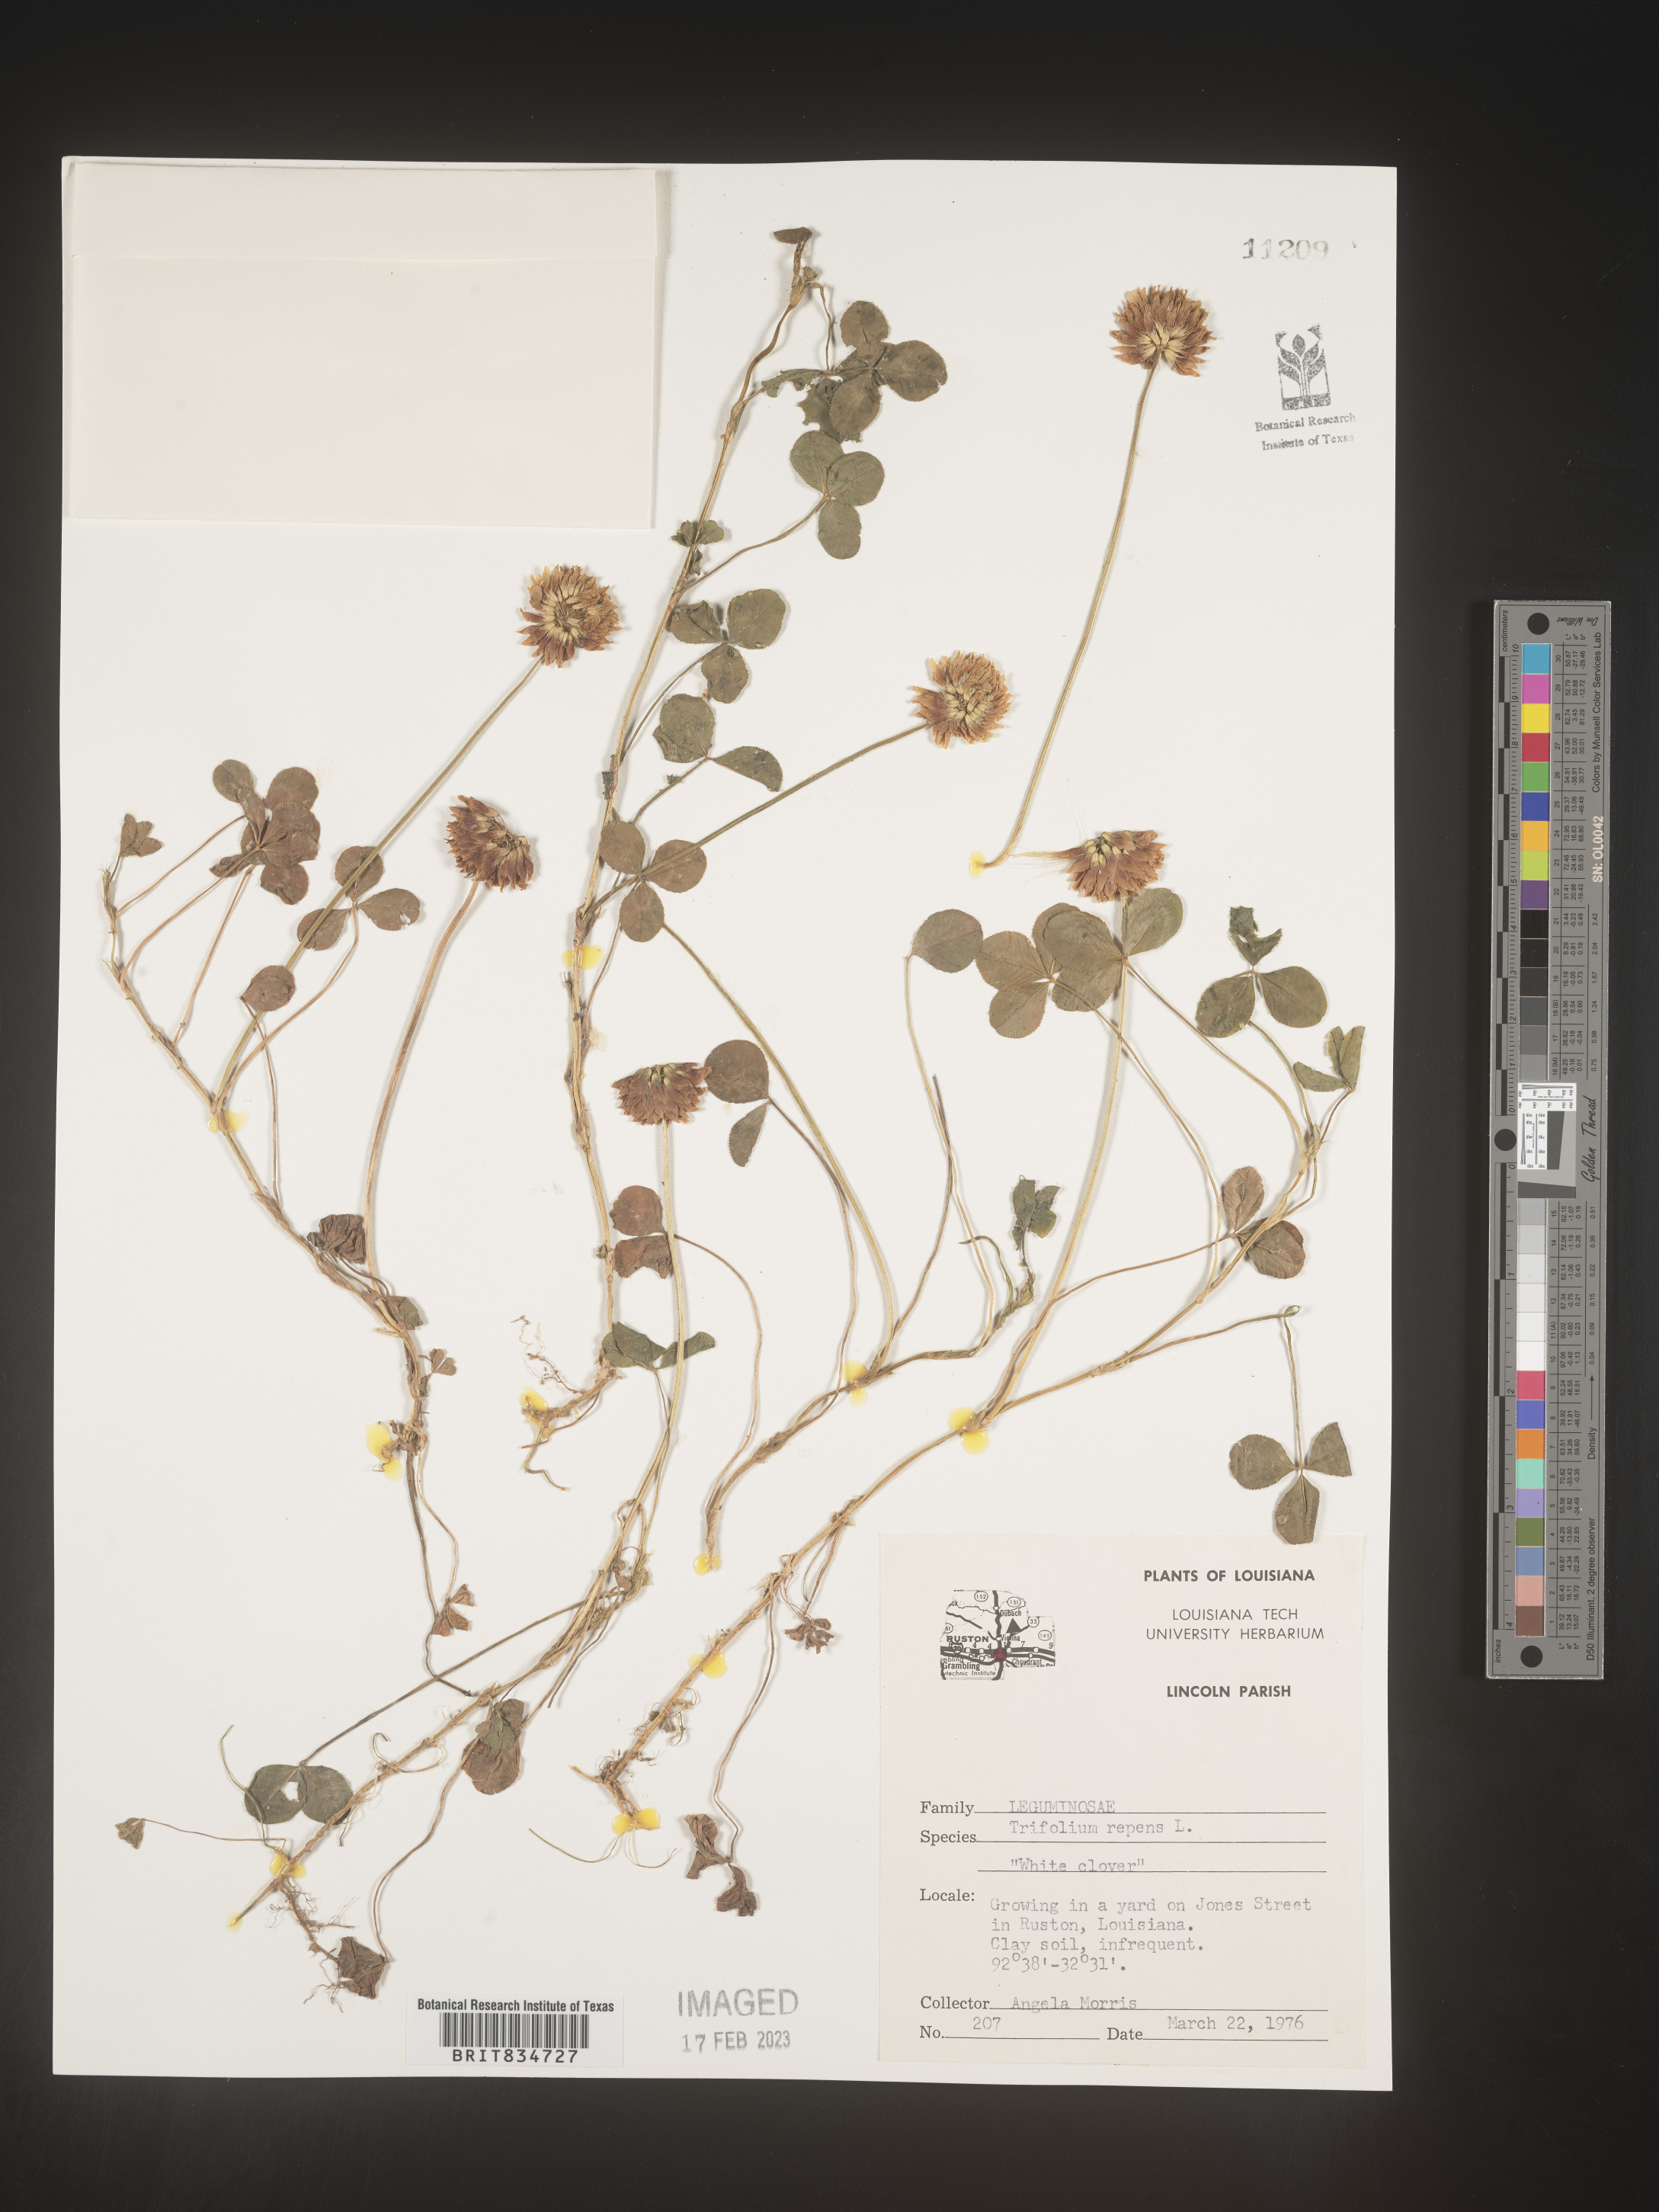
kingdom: Plantae
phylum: Tracheophyta
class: Magnoliopsida
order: Fabales
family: Fabaceae
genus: Trifolium
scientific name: Trifolium repens
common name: White clover
